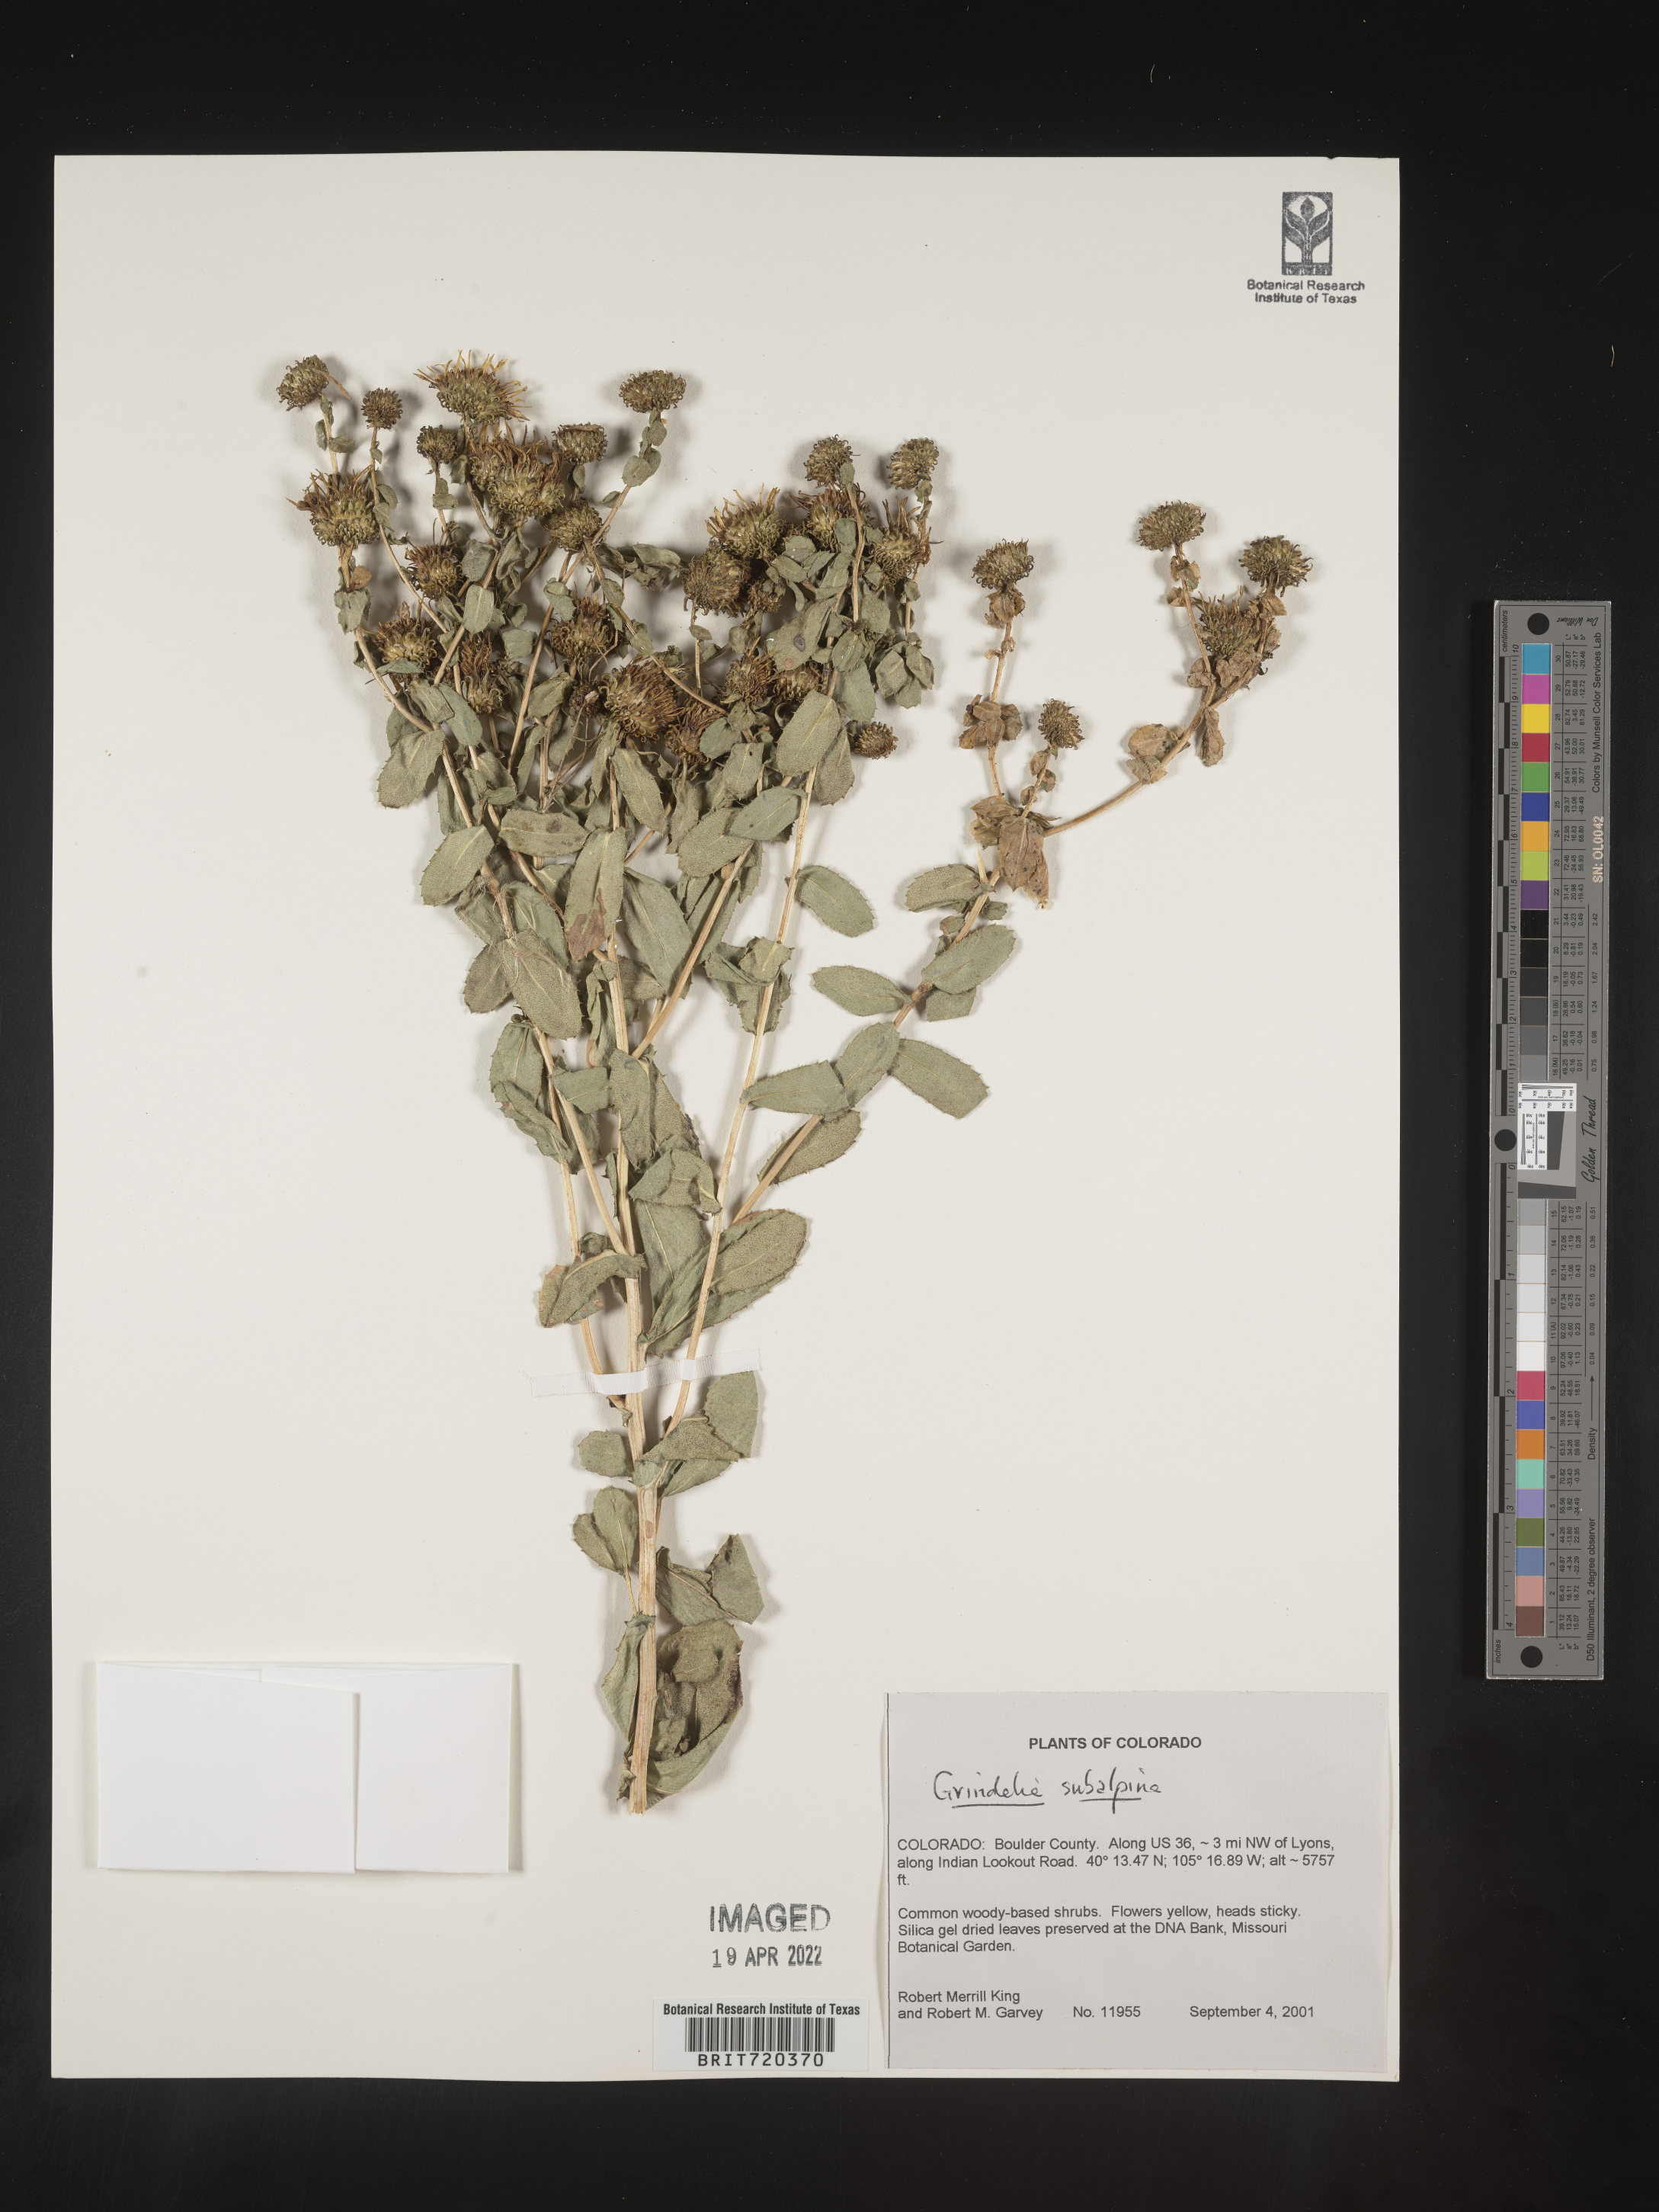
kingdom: Plantae
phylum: Tracheophyta
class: Magnoliopsida
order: Asterales
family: Asteraceae
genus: Grindelia
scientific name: Grindelia subalpina
